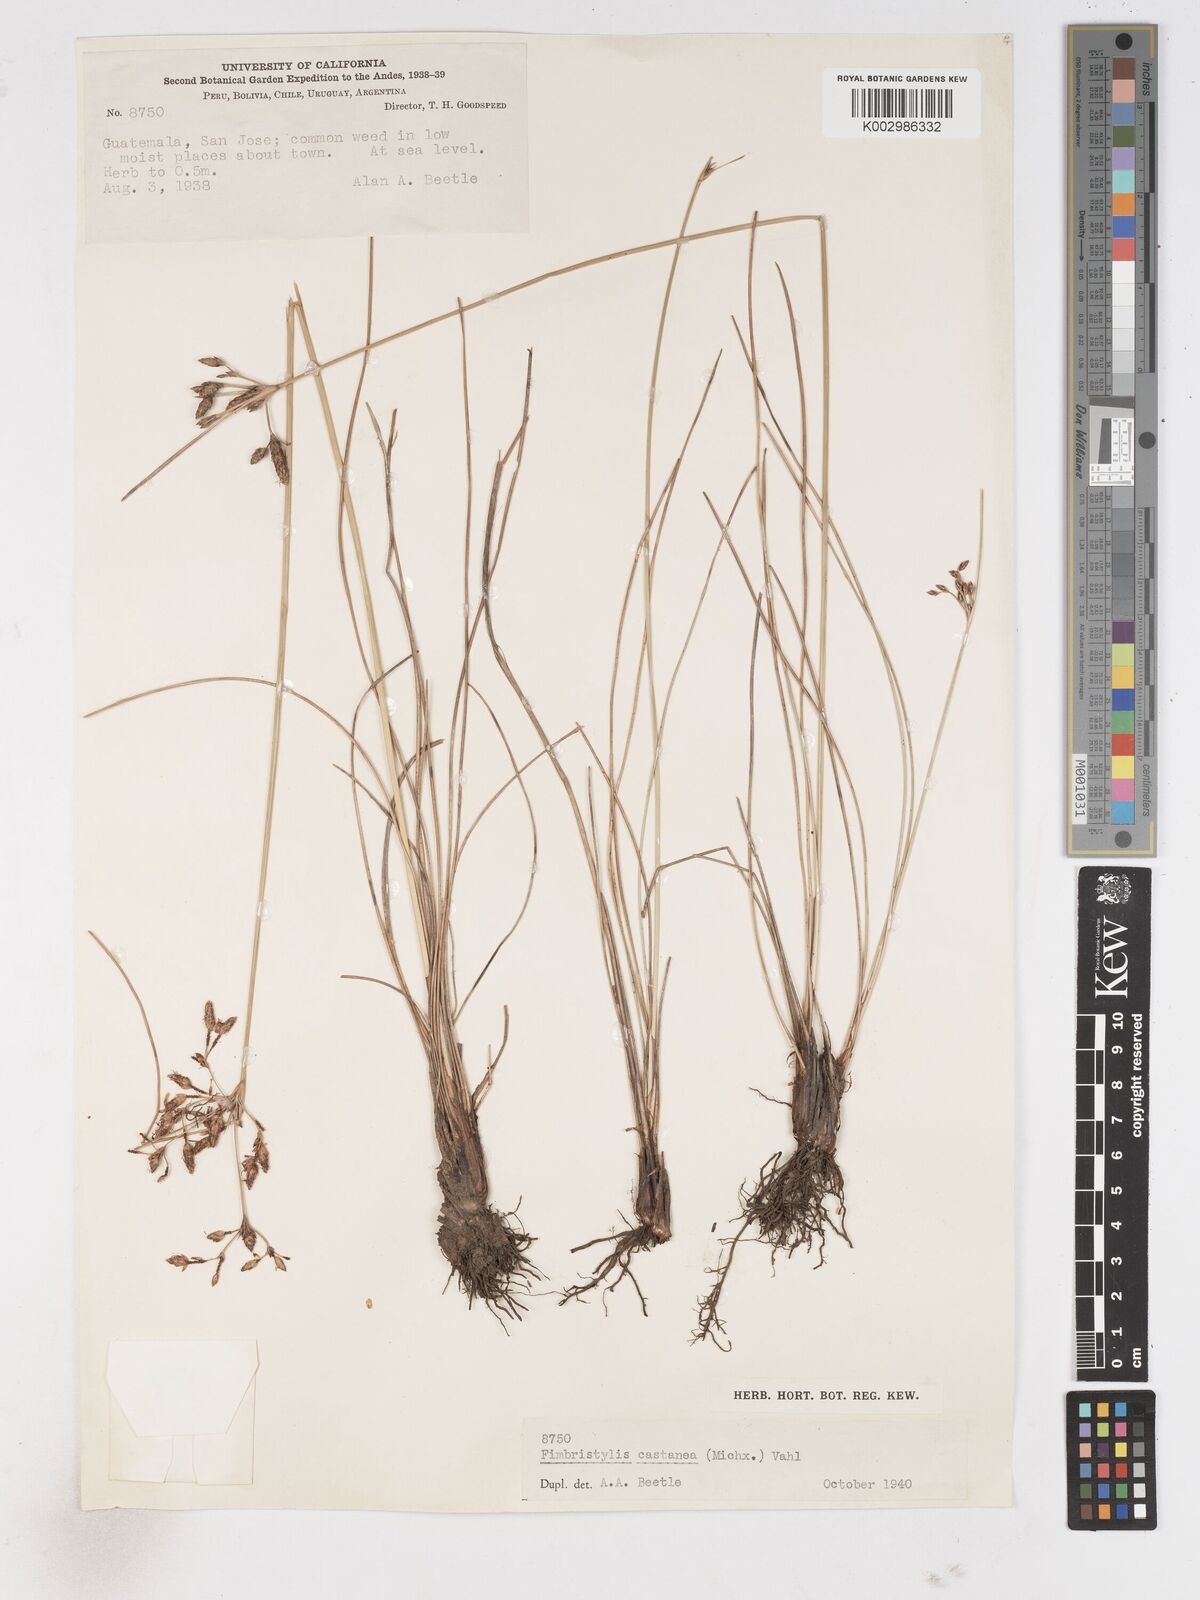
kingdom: Plantae
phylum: Tracheophyta
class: Liliopsida
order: Poales
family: Cyperaceae
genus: Fimbristylis
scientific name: Fimbristylis spadicea
